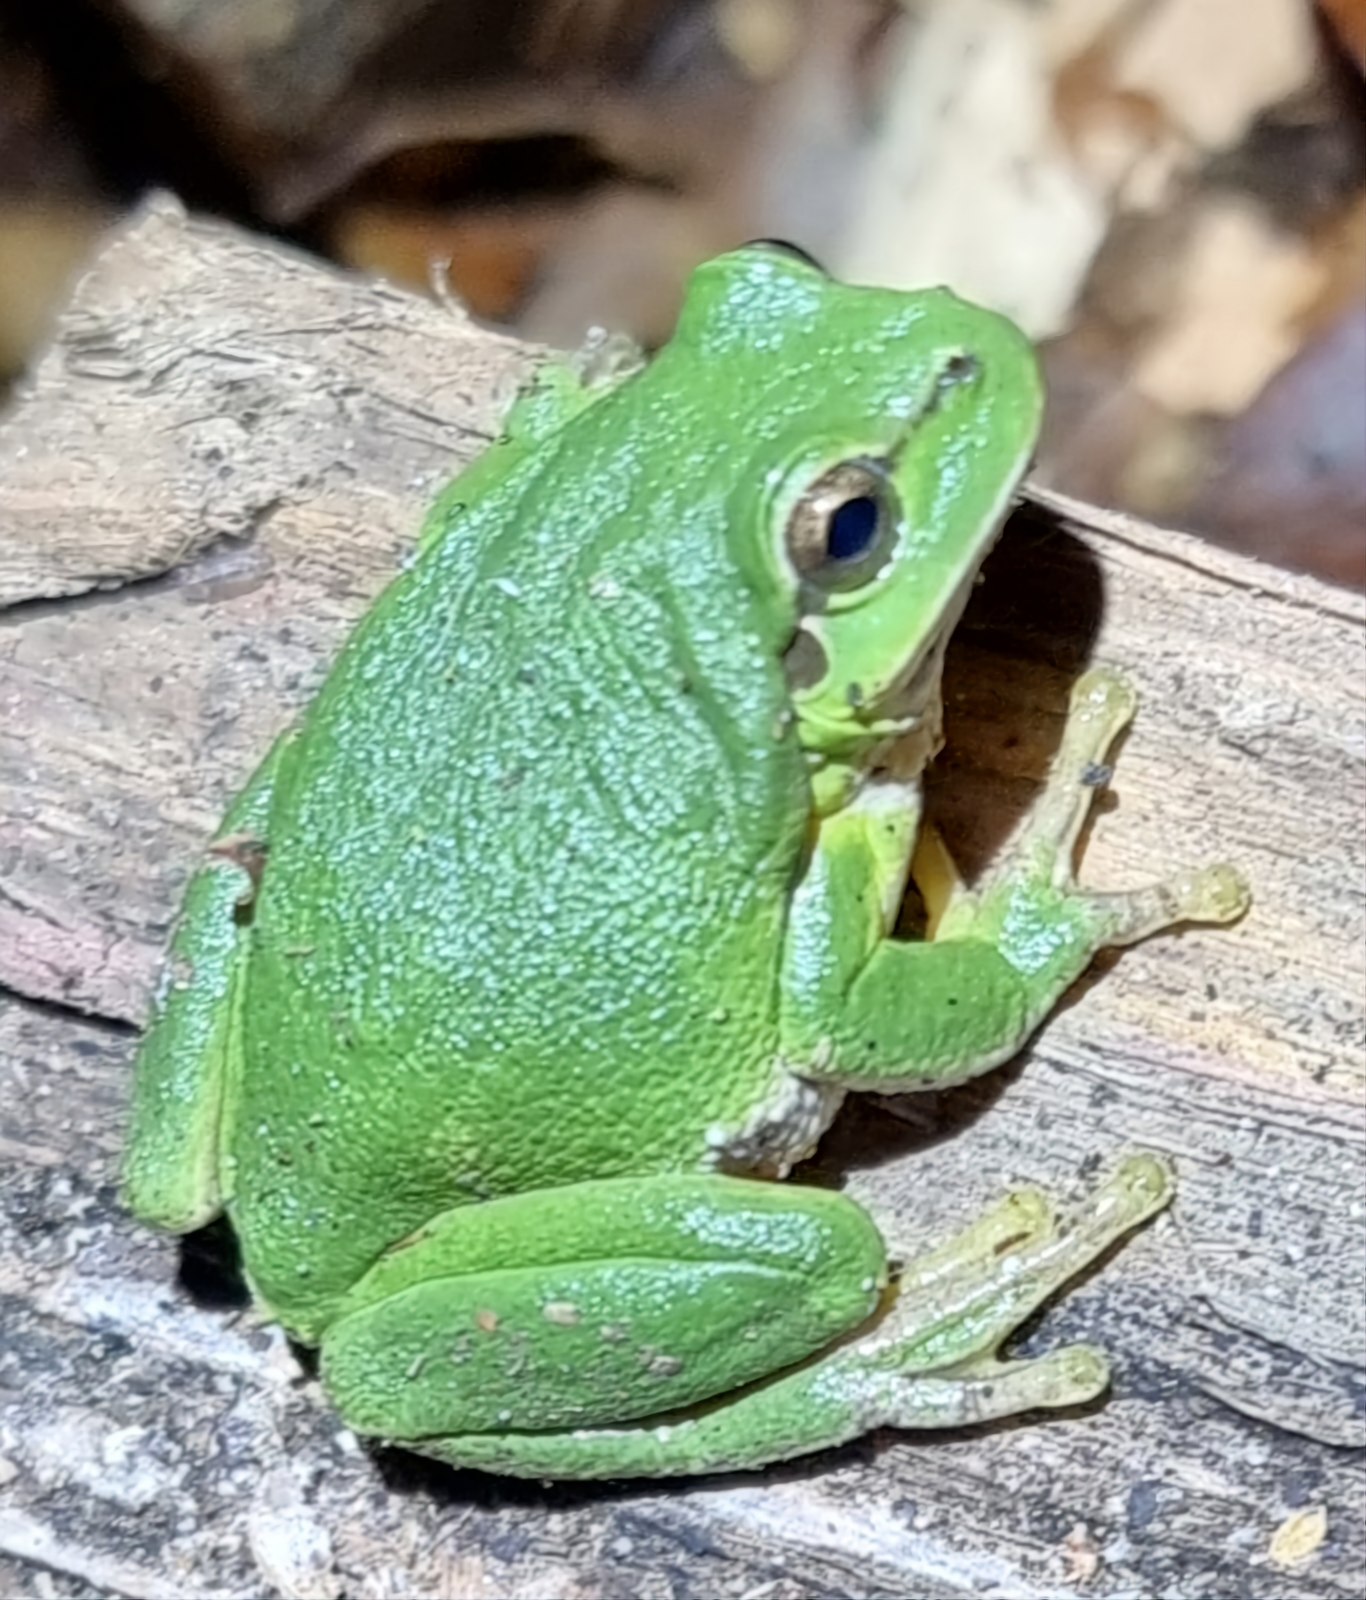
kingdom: Animalia
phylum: Chordata
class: Amphibia
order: Anura
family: Hylidae
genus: Hyla
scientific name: Hyla arborea
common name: Løvfrø
